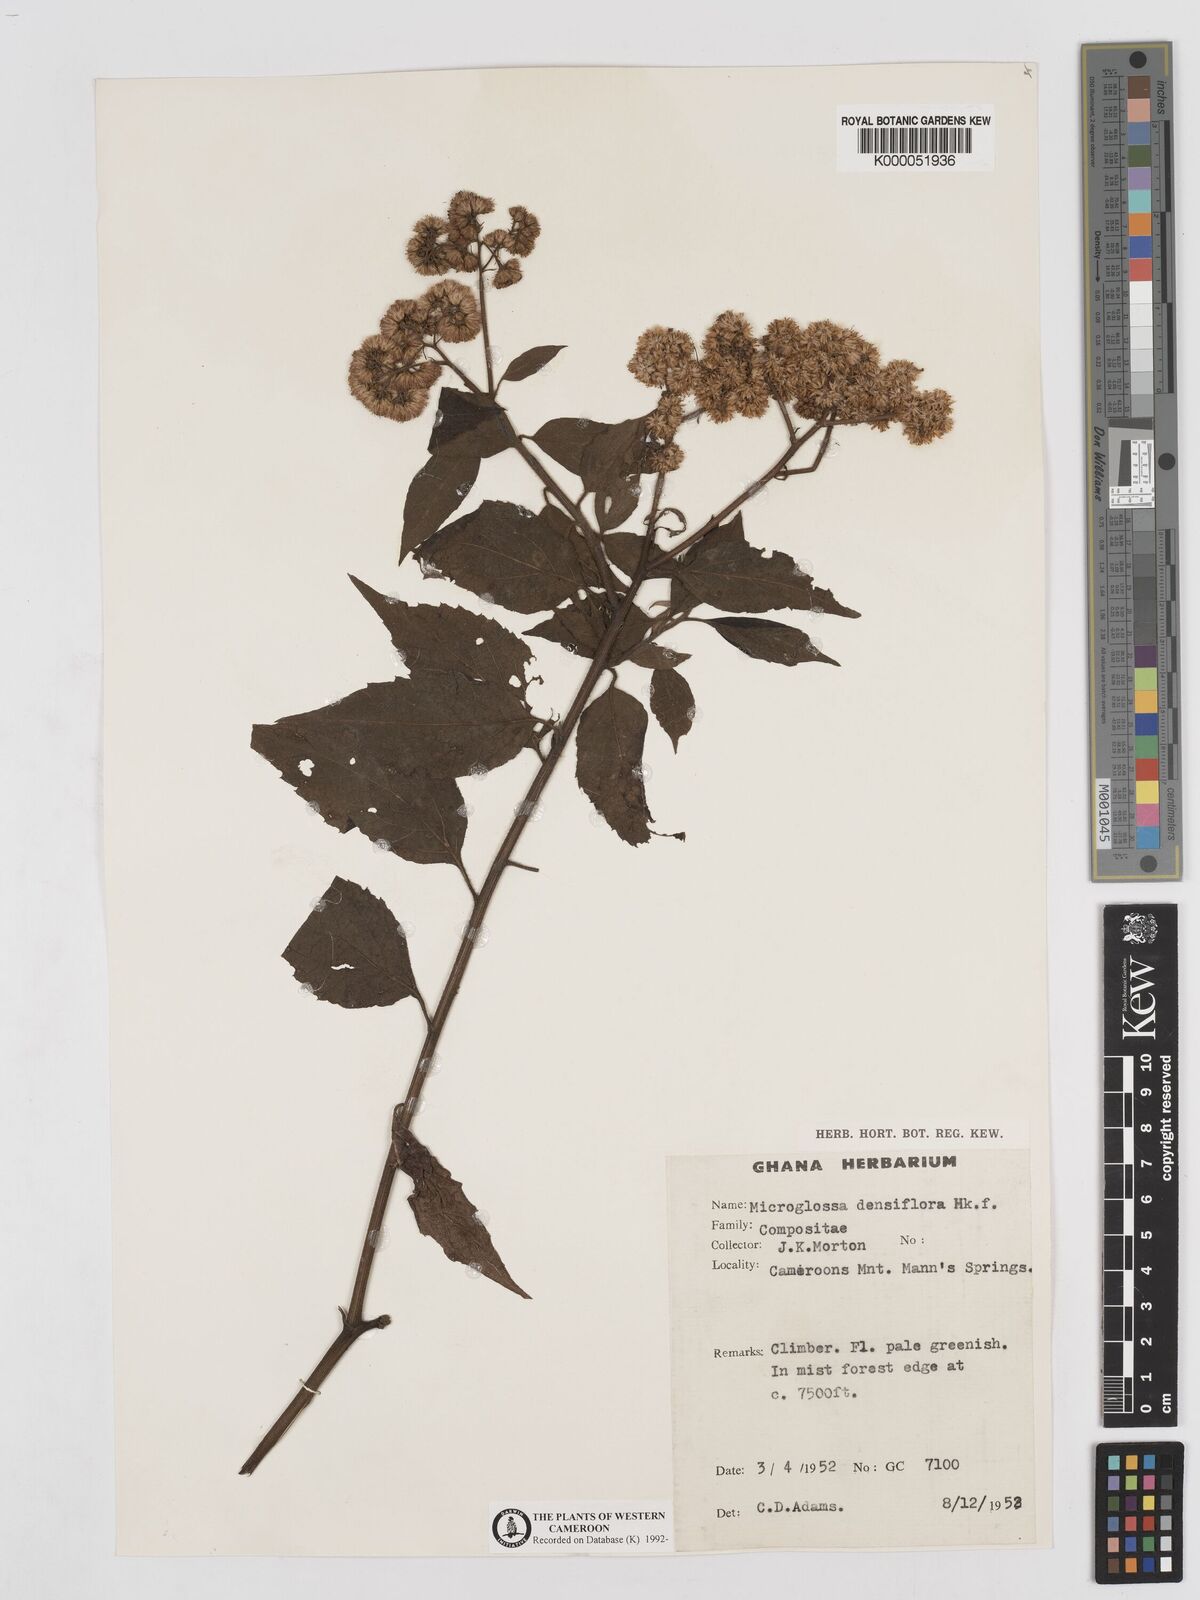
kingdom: Plantae
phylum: Tracheophyta
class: Magnoliopsida
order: Asterales
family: Asteraceae
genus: Microglossa
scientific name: Microglossa densiflora
